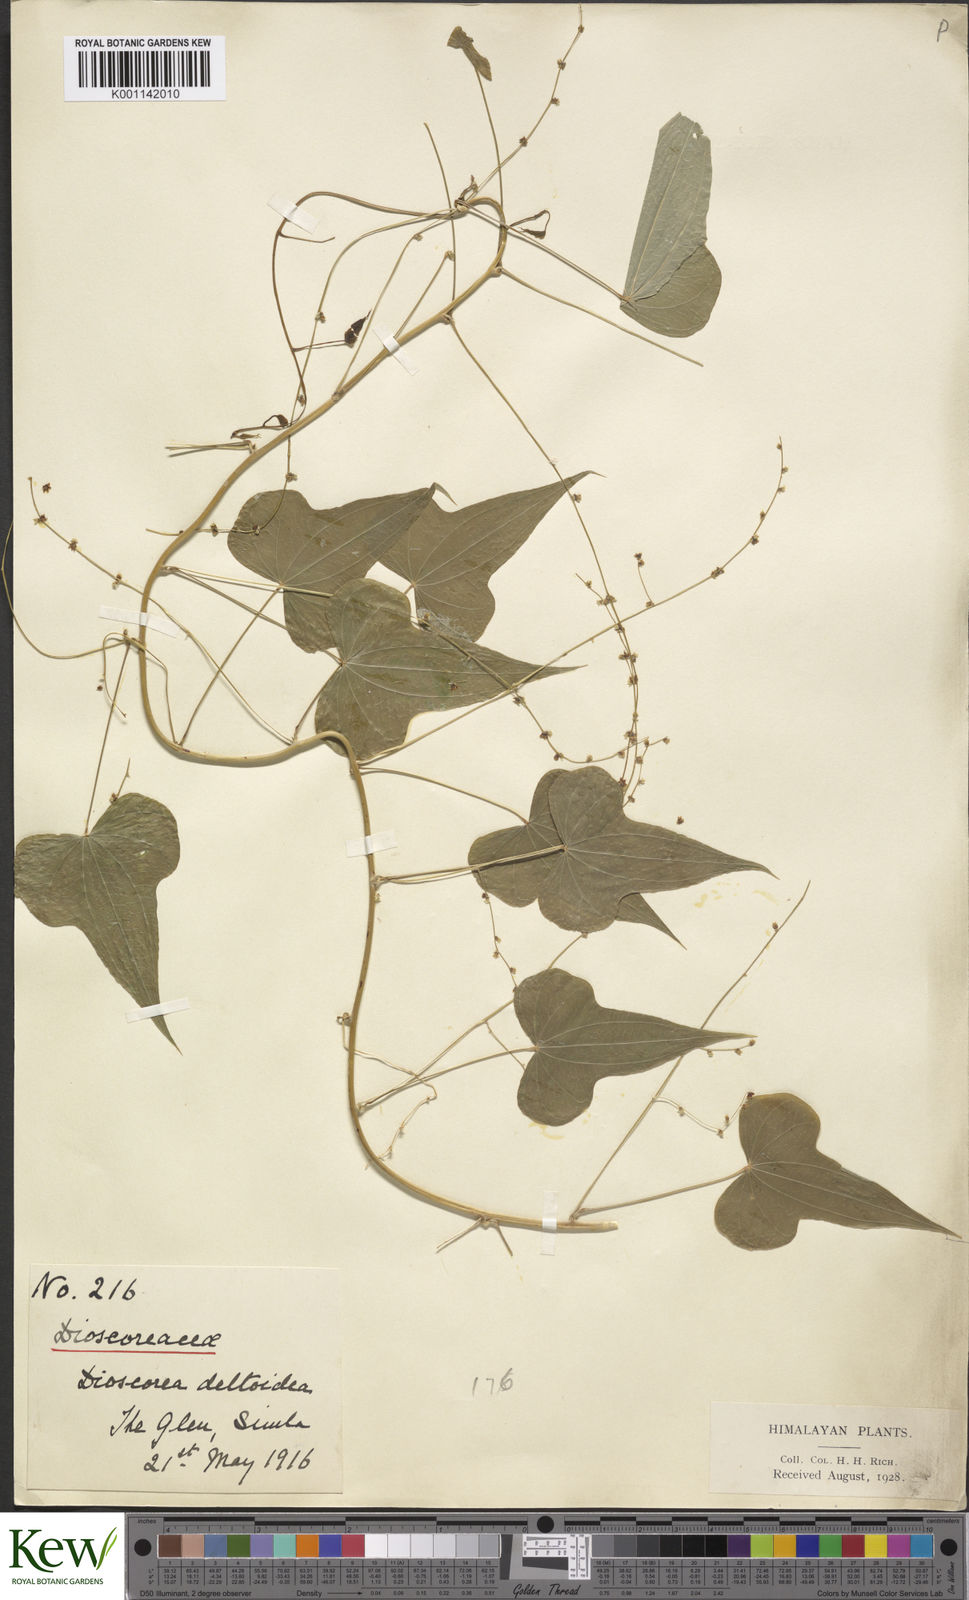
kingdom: Plantae
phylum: Tracheophyta
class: Liliopsida
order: Dioscoreales
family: Dioscoreaceae
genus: Dioscorea
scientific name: Dioscorea deltoidea
